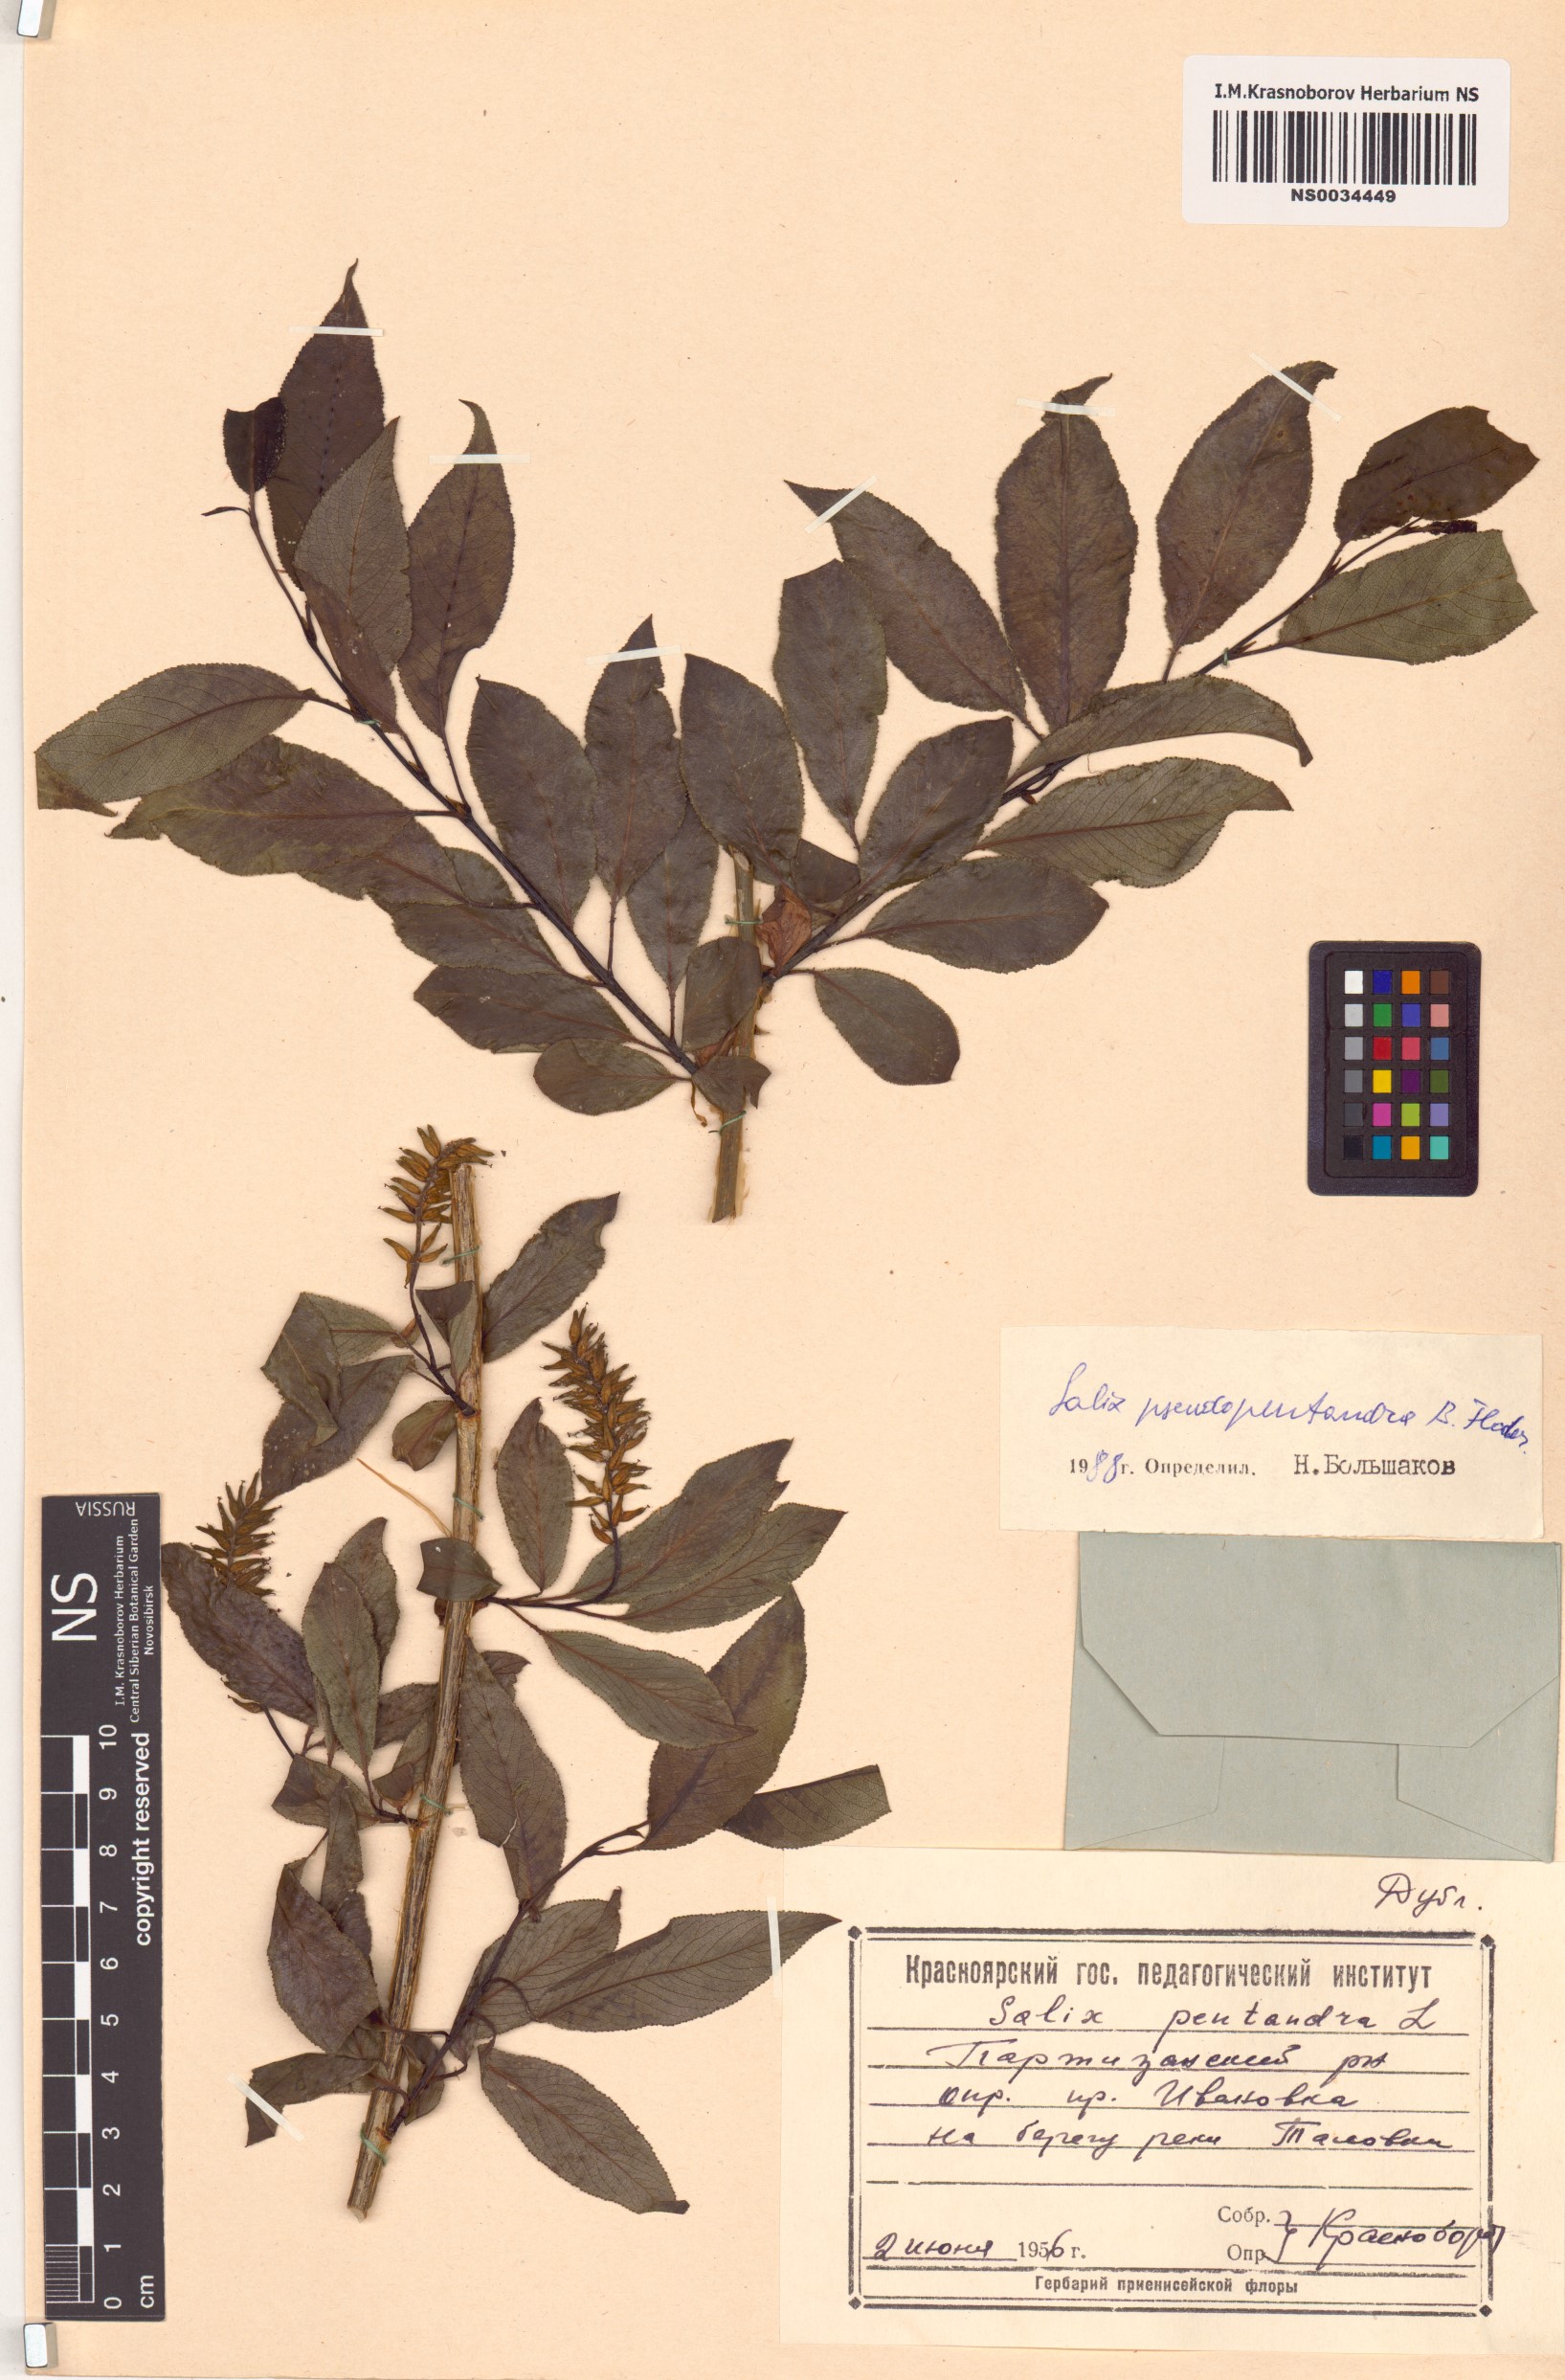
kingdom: Plantae
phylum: Tracheophyta
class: Magnoliopsida
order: Malpighiales
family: Salicaceae
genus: Salix
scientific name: Salix pseudopentandra
